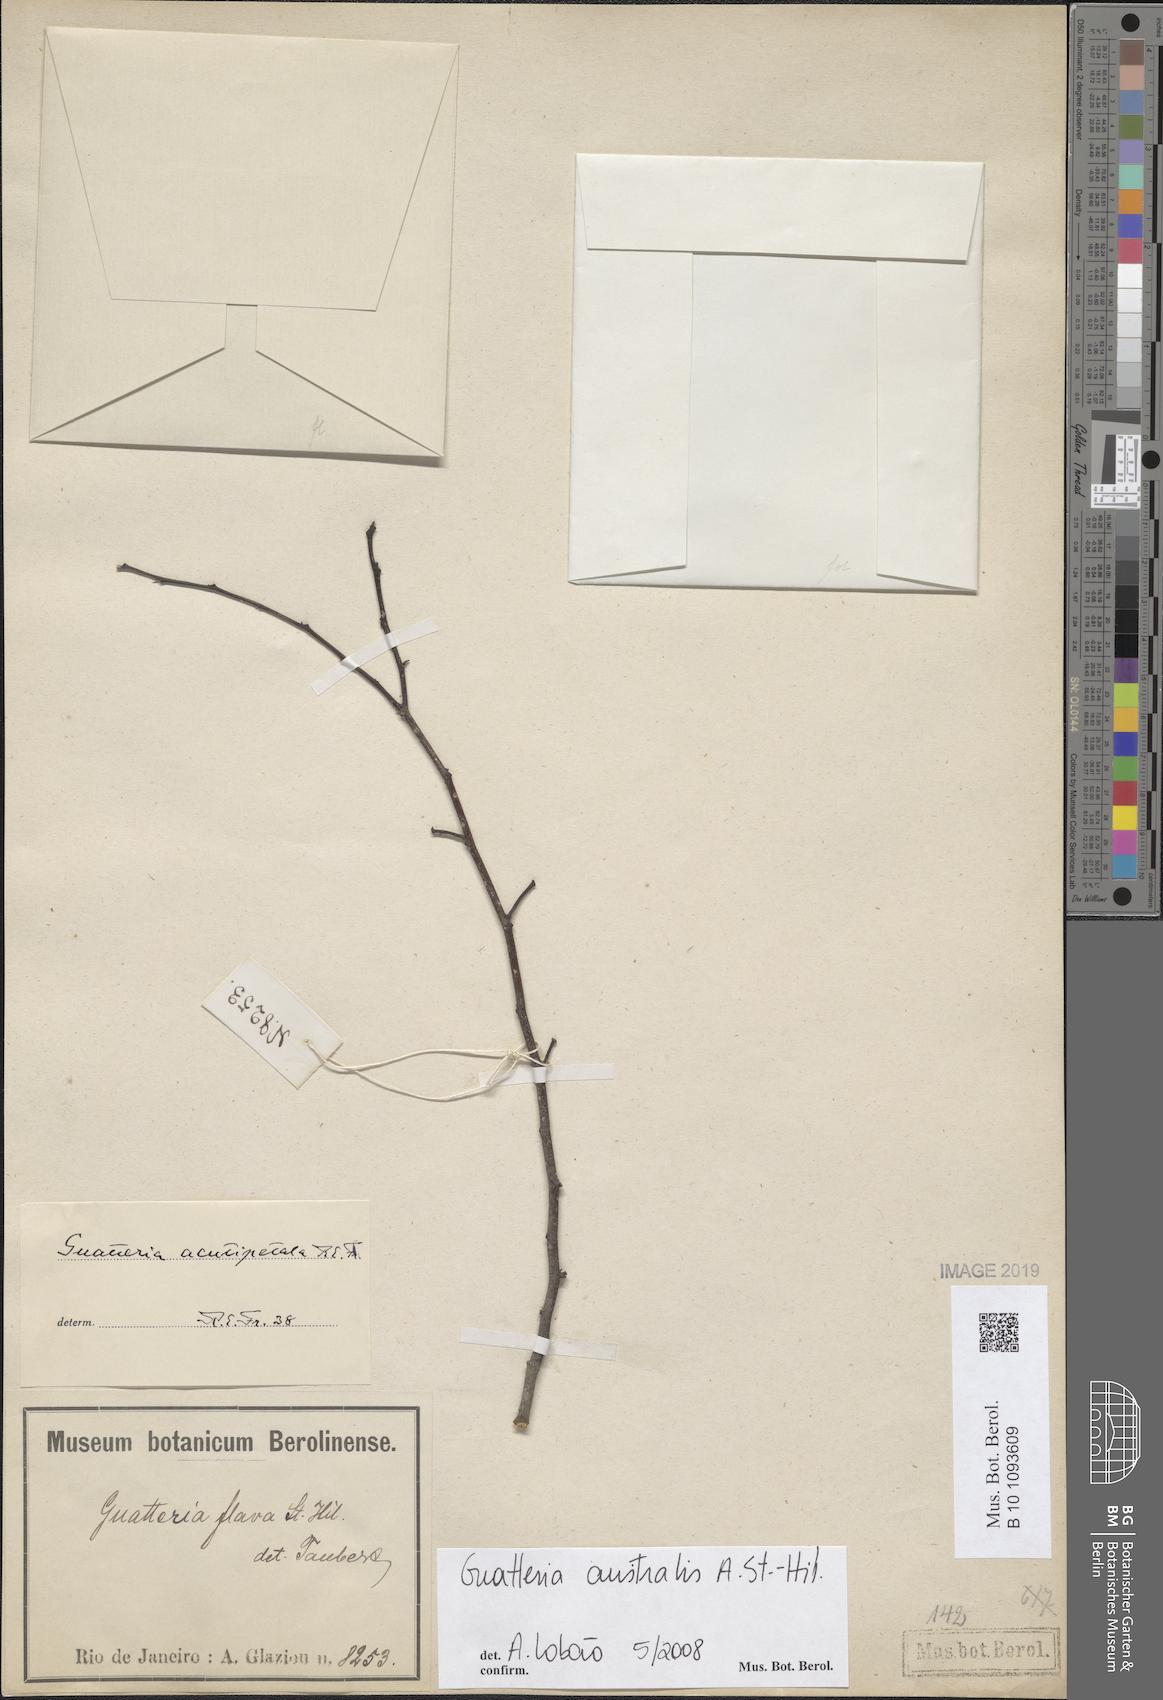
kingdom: Plantae
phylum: Tracheophyta
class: Magnoliopsida
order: Magnoliales
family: Annonaceae
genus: Guatteria
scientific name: Guatteria australis
